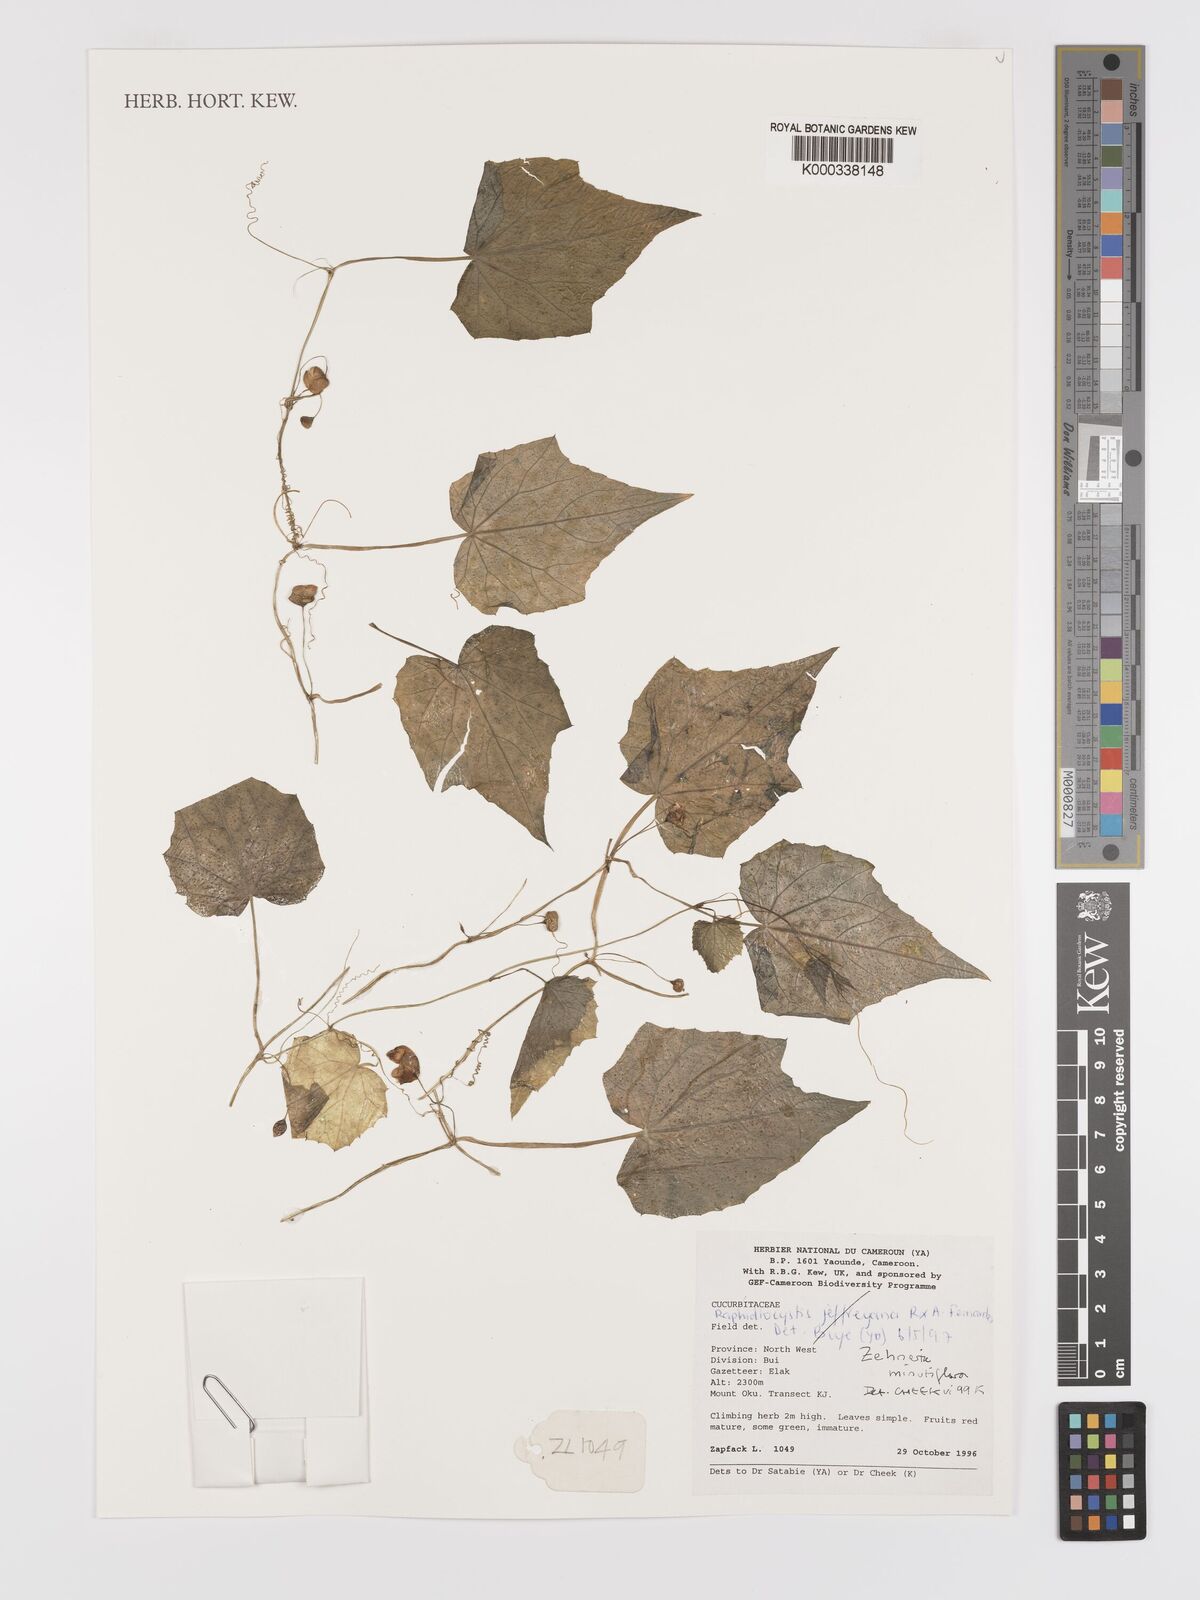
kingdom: Plantae
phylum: Tracheophyta
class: Magnoliopsida
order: Cucurbitales
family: Cucurbitaceae
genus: Zehneria
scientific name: Zehneria minutiflora
